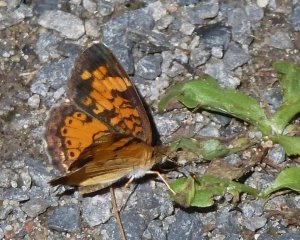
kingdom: Animalia
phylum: Arthropoda
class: Insecta
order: Lepidoptera
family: Nymphalidae
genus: Phyciodes
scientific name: Phyciodes tharos
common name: Northern Crescent
